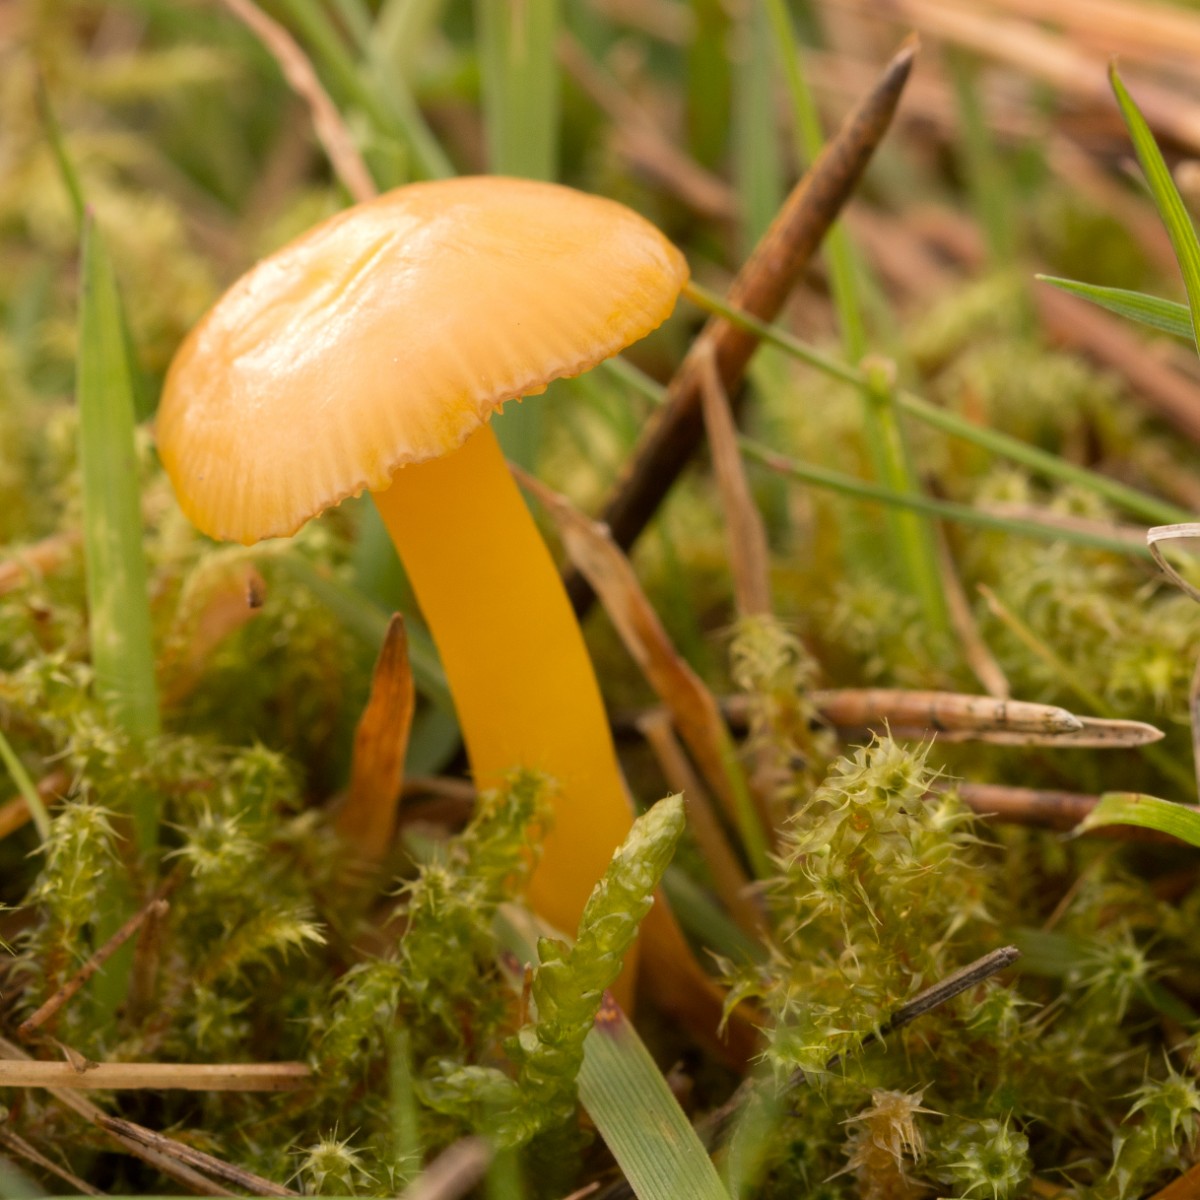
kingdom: Fungi
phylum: Basidiomycota
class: Agaricomycetes
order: Agaricales
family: Hygrophoraceae
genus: Hygrocybe
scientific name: Hygrocybe ceracea
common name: voksgul vokshat
